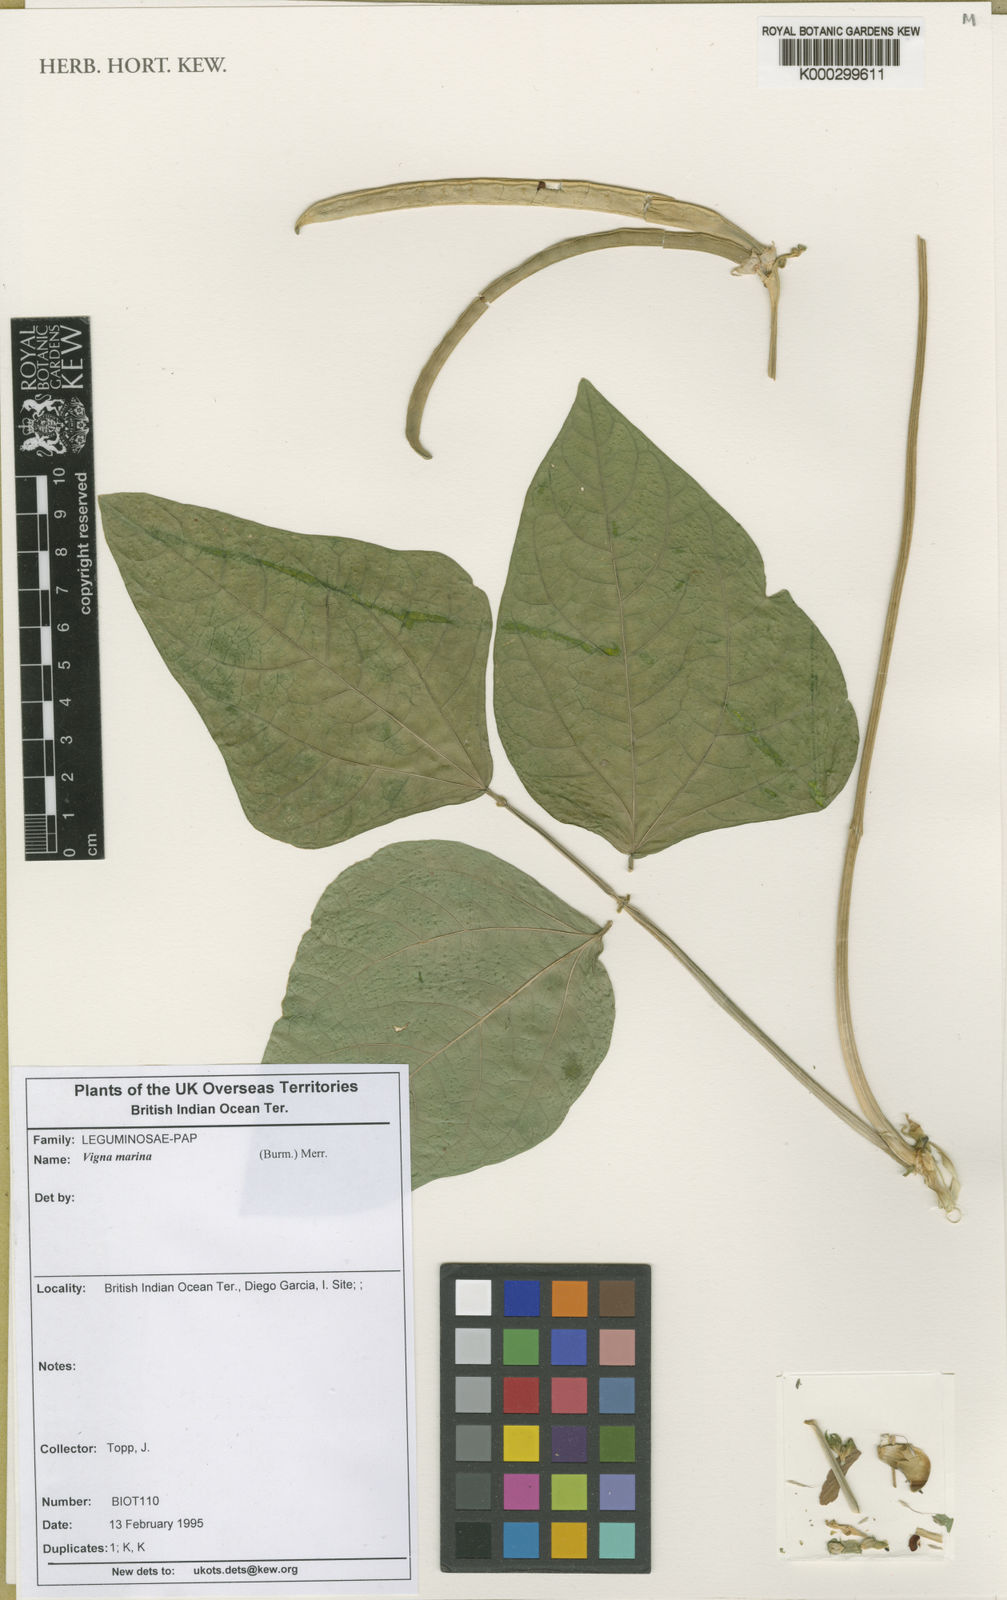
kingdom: Plantae
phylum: Tracheophyta
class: Magnoliopsida
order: Fabales
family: Fabaceae
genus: Vigna
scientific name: Vigna unguiculata
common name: Cowpea
